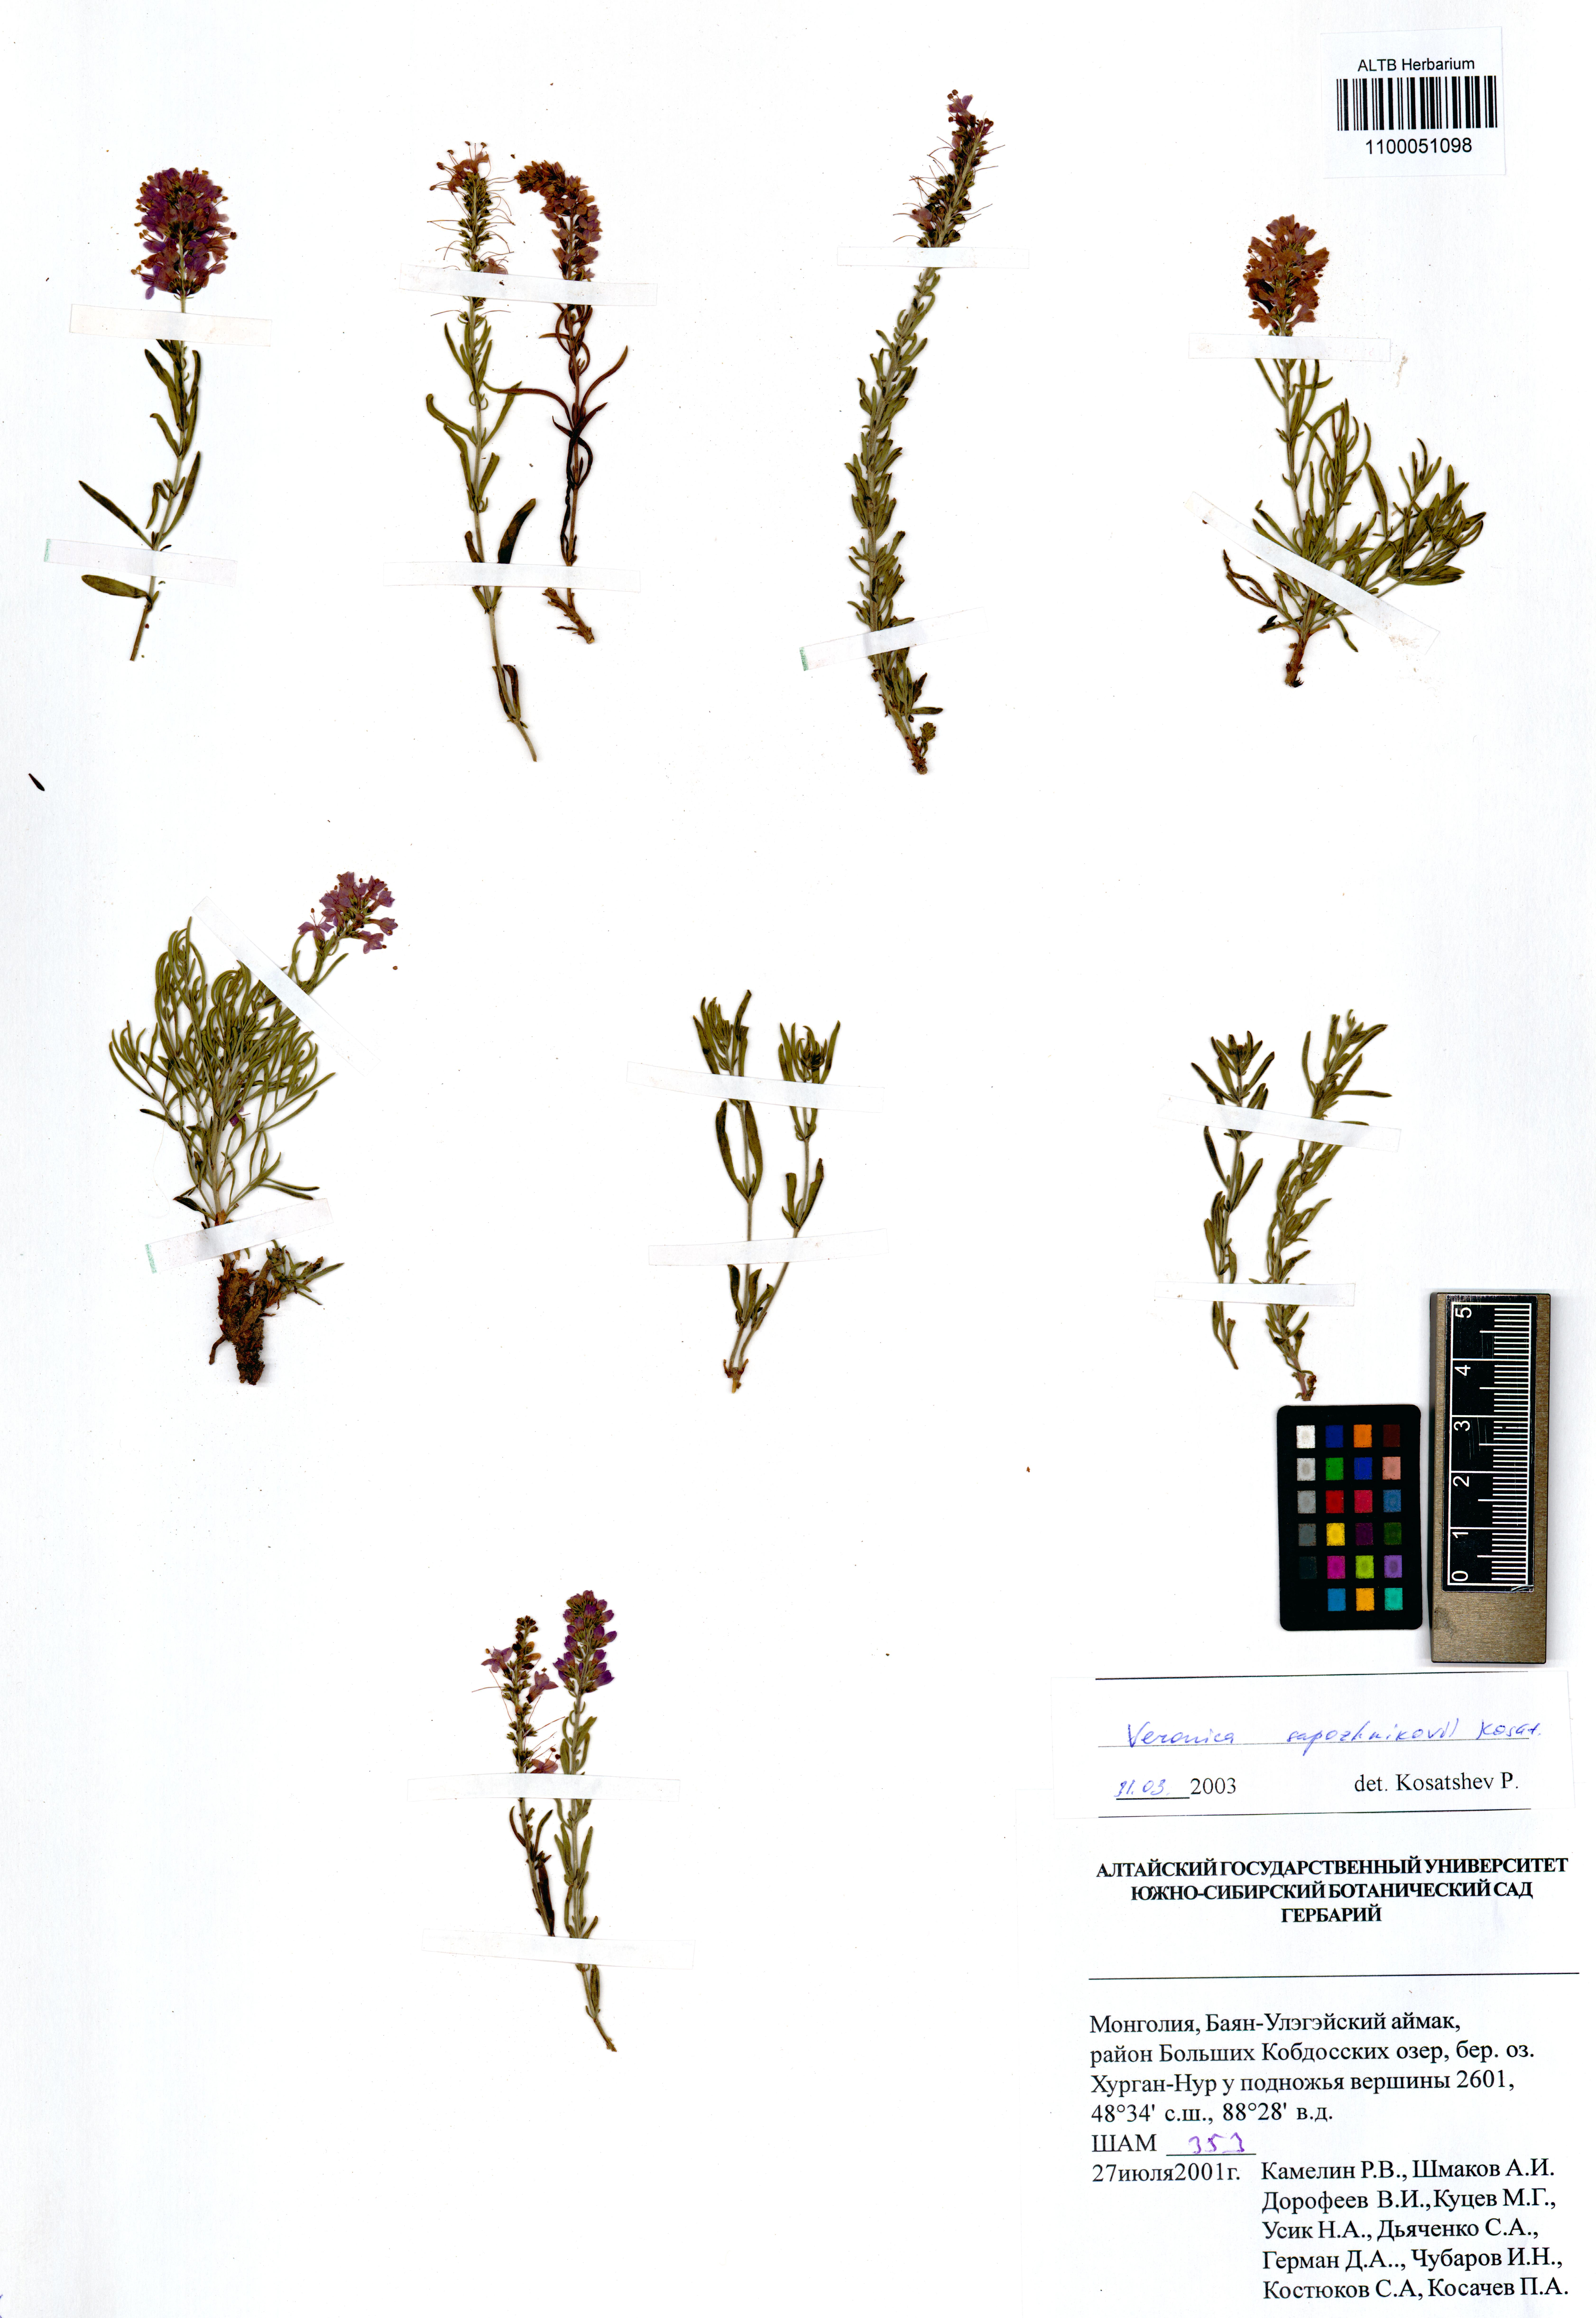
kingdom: Plantae
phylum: Tracheophyta
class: Magnoliopsida
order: Lamiales
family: Plantaginaceae
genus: Veronica
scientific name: Veronica sapozhnikovii
